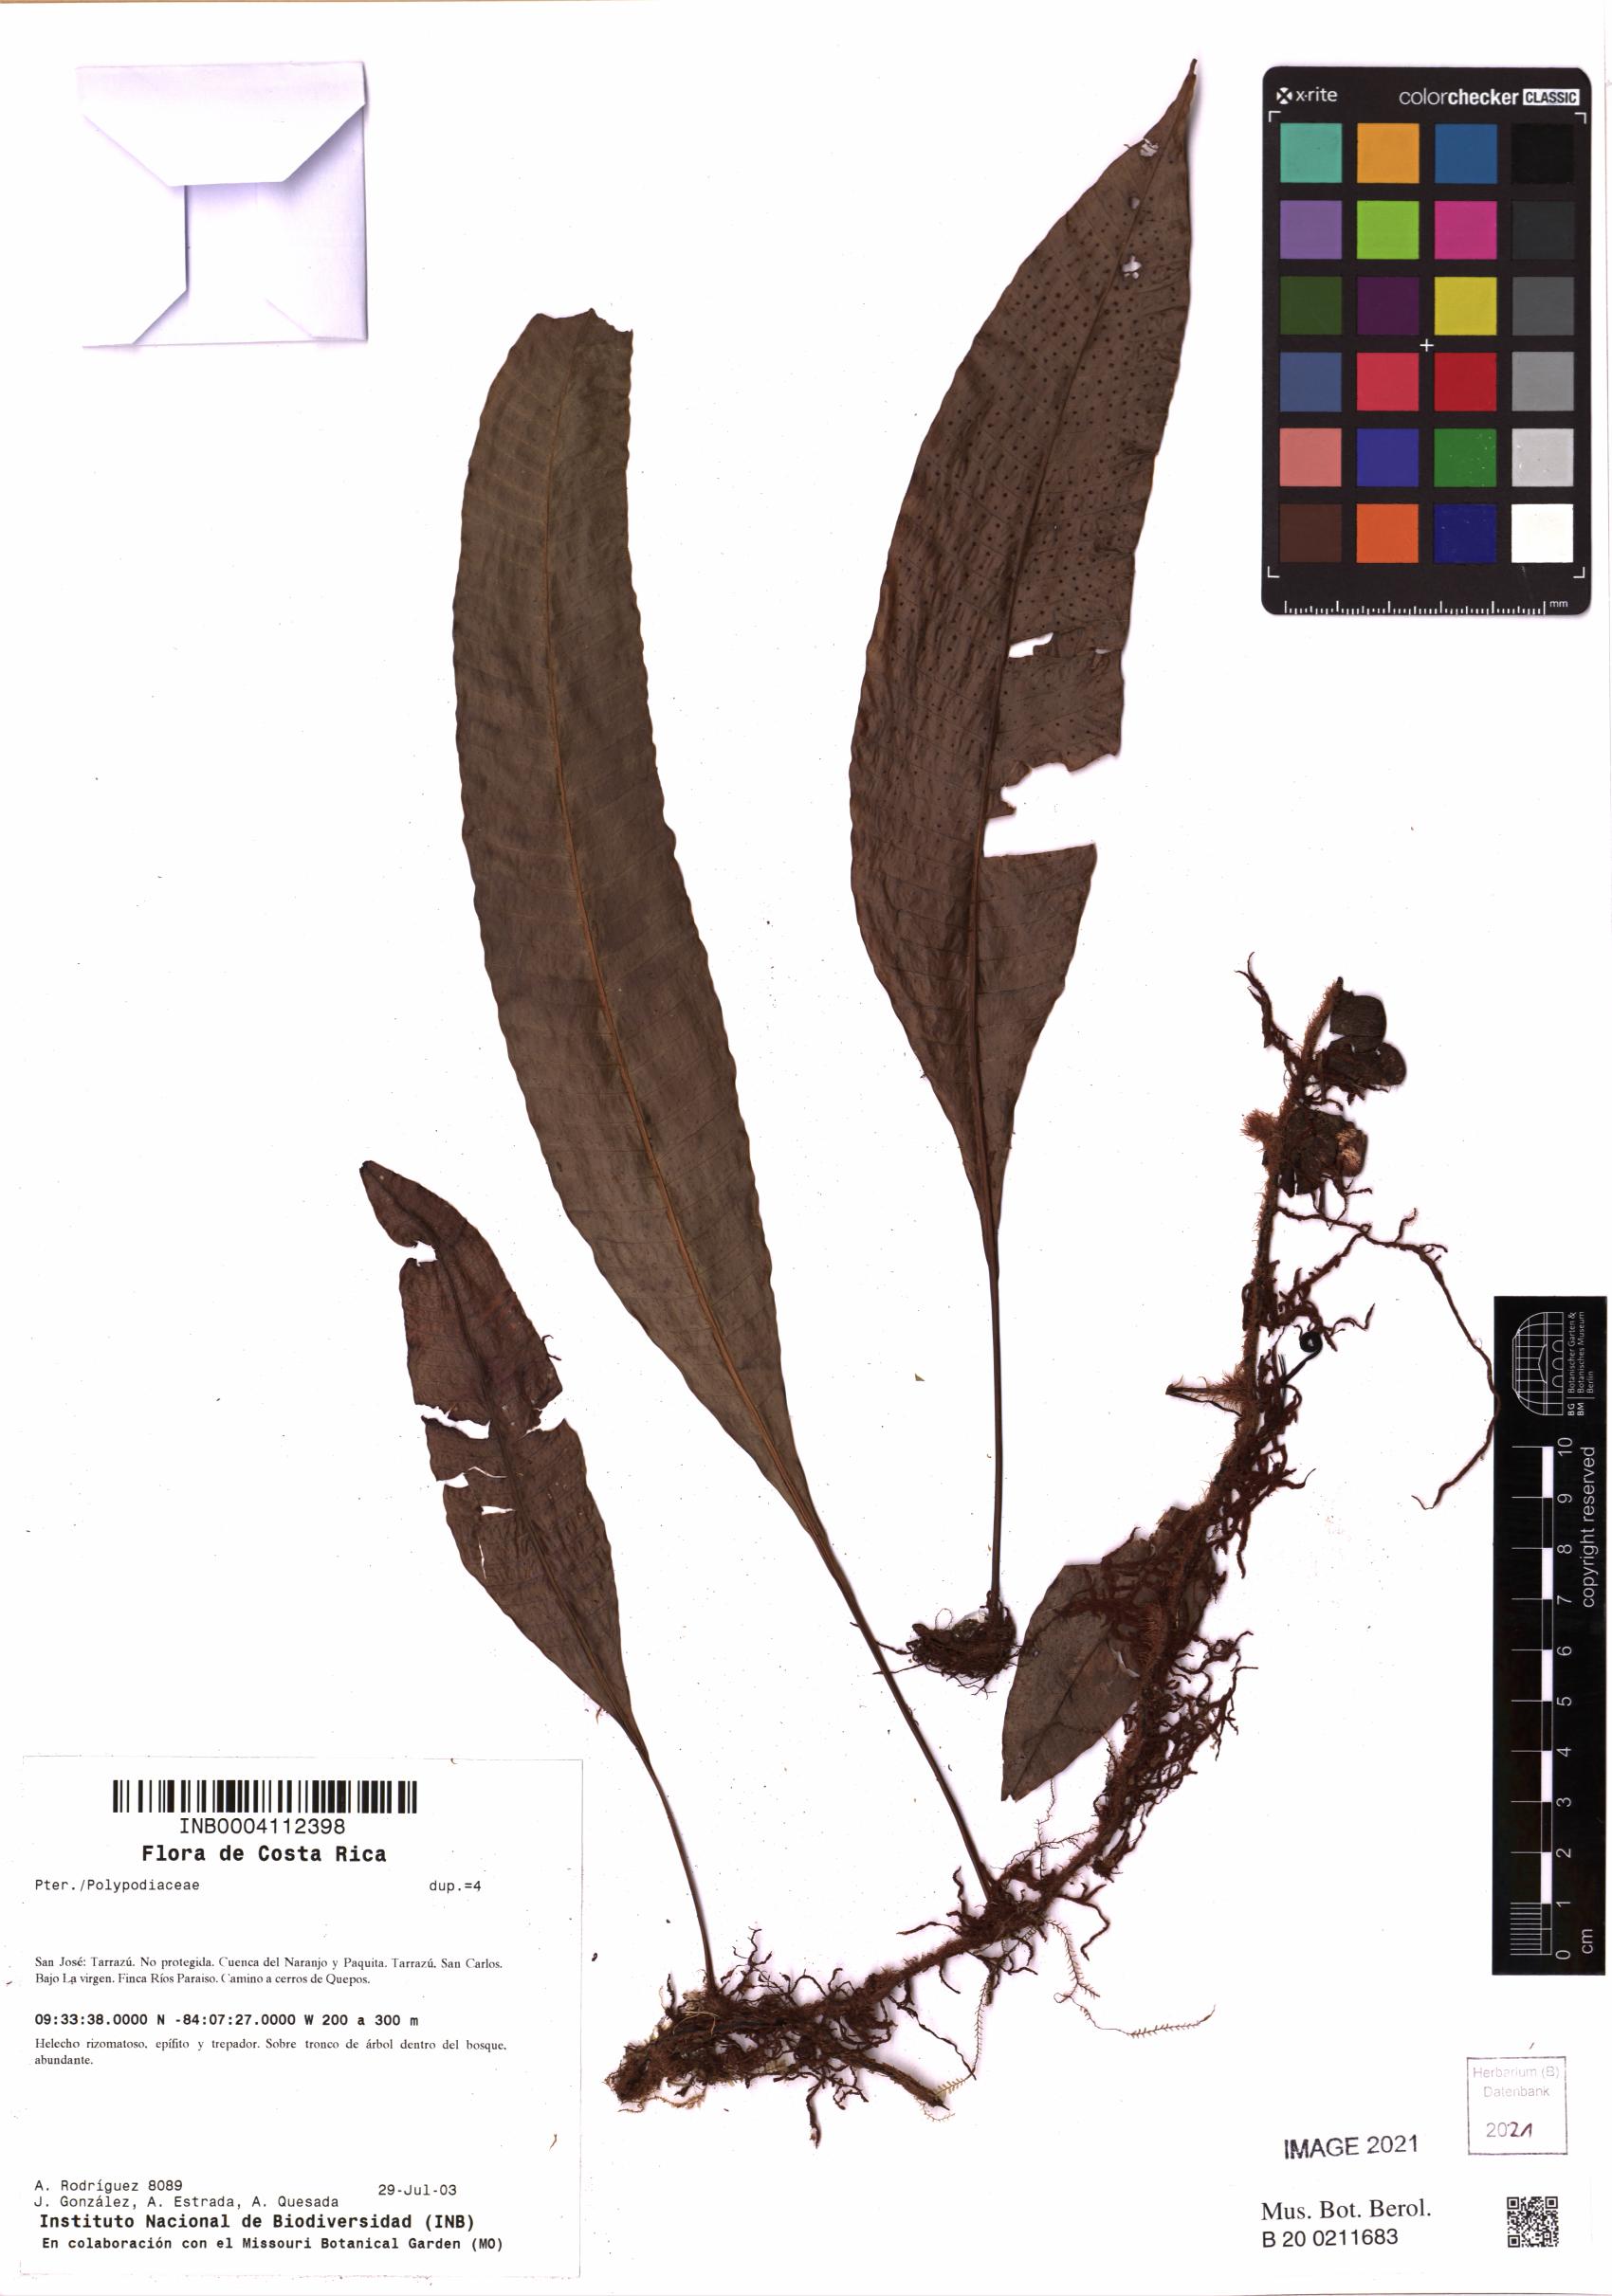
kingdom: Plantae
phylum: Tracheophyta
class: Polypodiopsida
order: Polypodiales
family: Polypodiaceae
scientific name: Polypodiaceae
